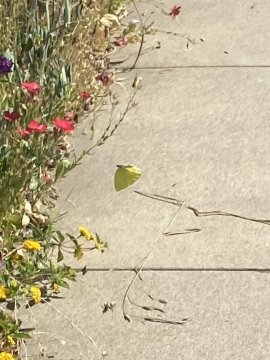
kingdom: Animalia
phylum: Arthropoda
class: Insecta
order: Lepidoptera
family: Pieridae
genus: Phoebis
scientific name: Phoebis sennae
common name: Cloudless Sulphur
